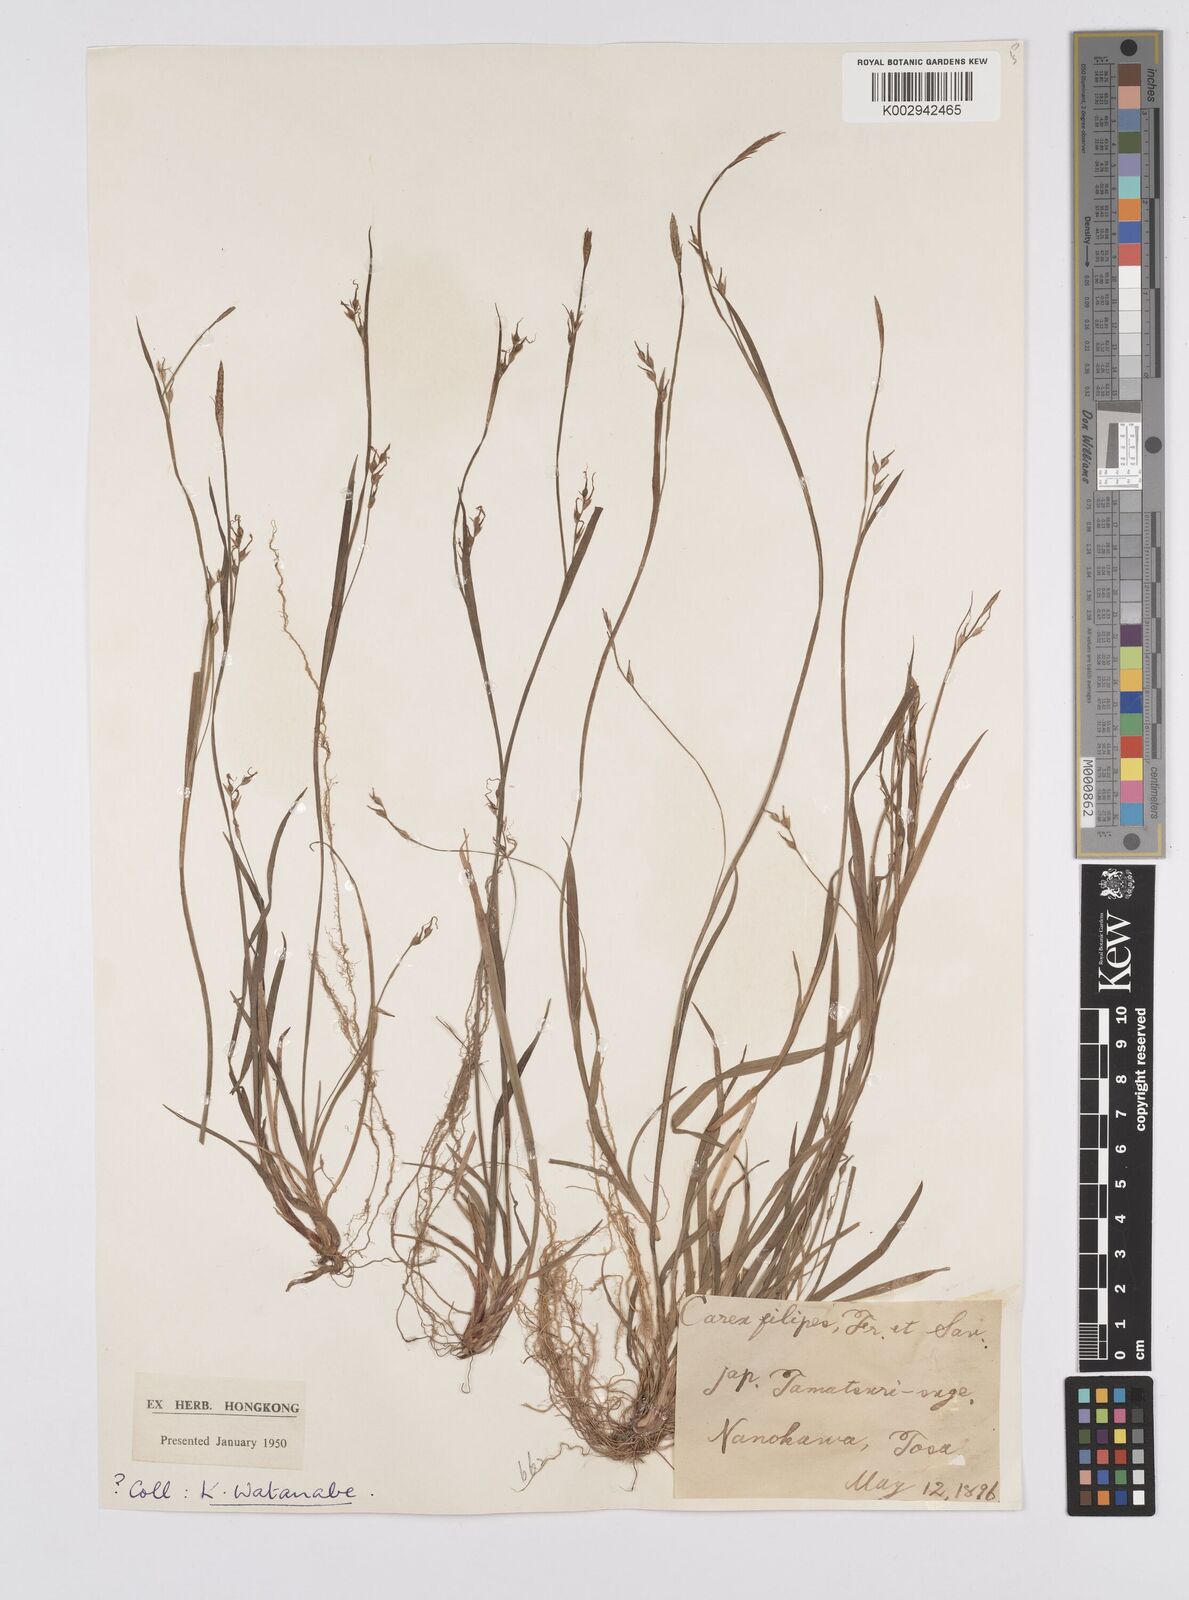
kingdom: Plantae
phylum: Tracheophyta
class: Liliopsida
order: Poales
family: Cyperaceae
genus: Carex
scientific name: Carex filipes
